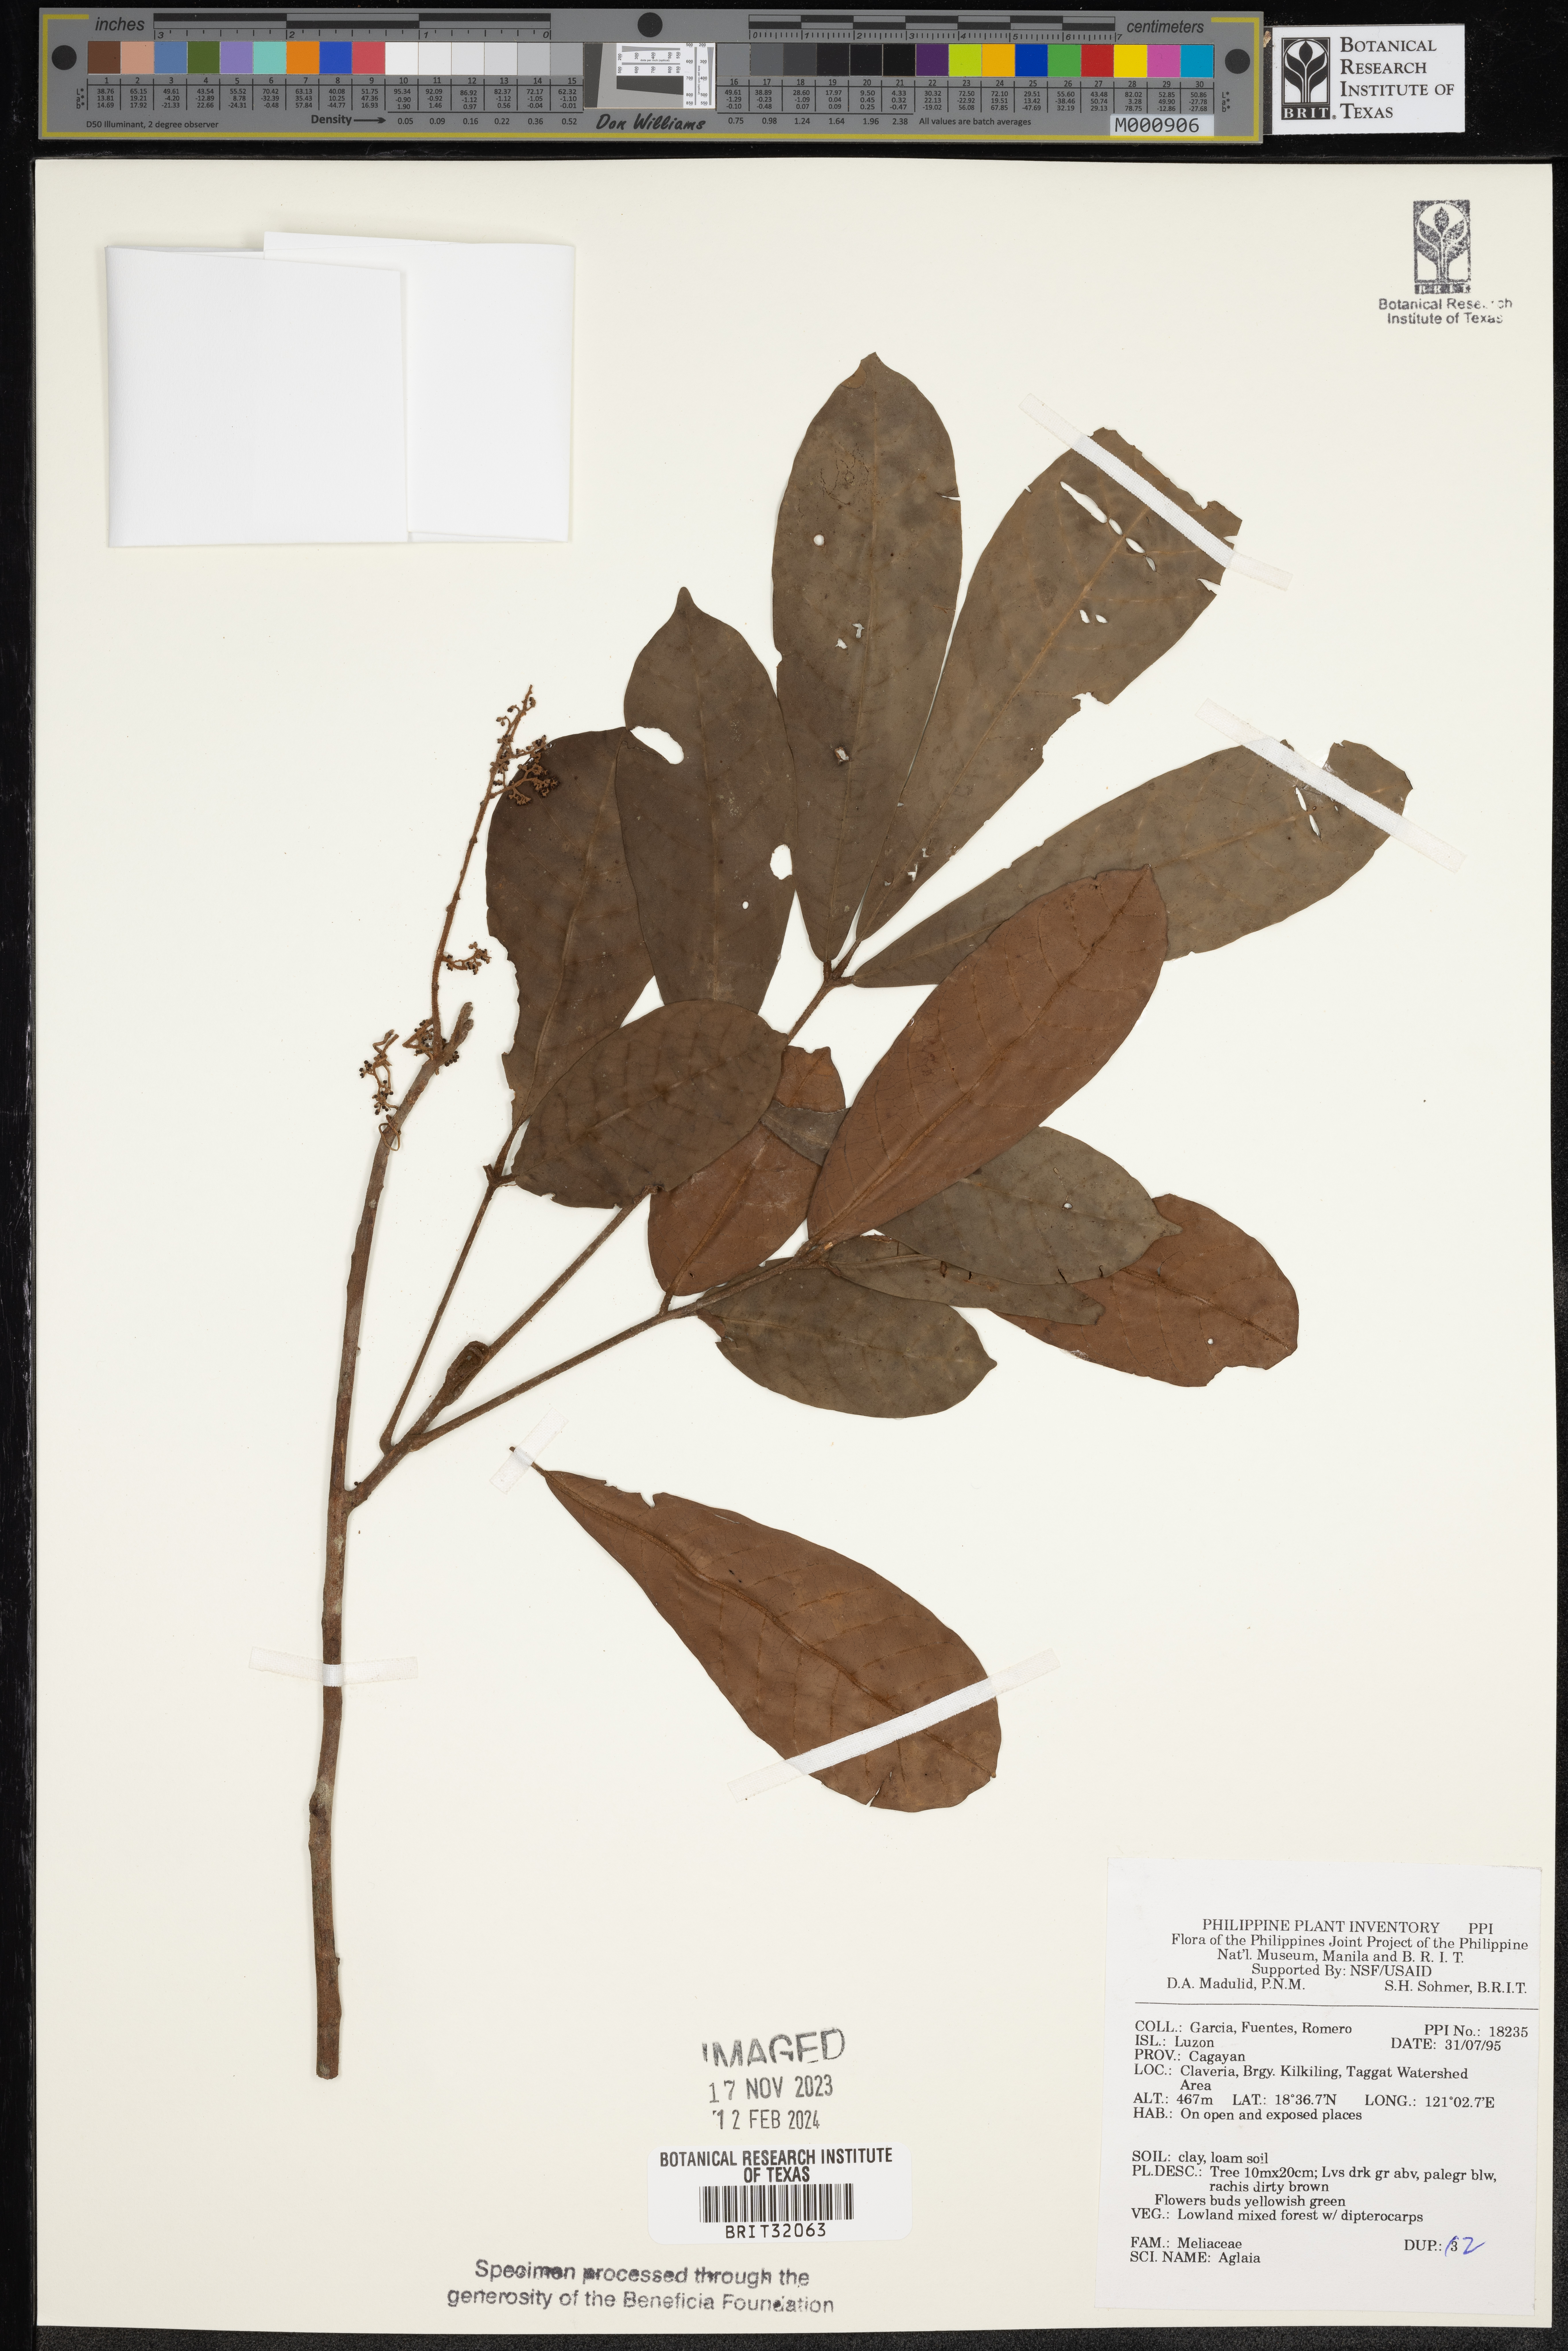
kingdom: Plantae
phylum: Tracheophyta
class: Magnoliopsida
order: Sapindales
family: Meliaceae
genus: Aglaia
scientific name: Aglaia
